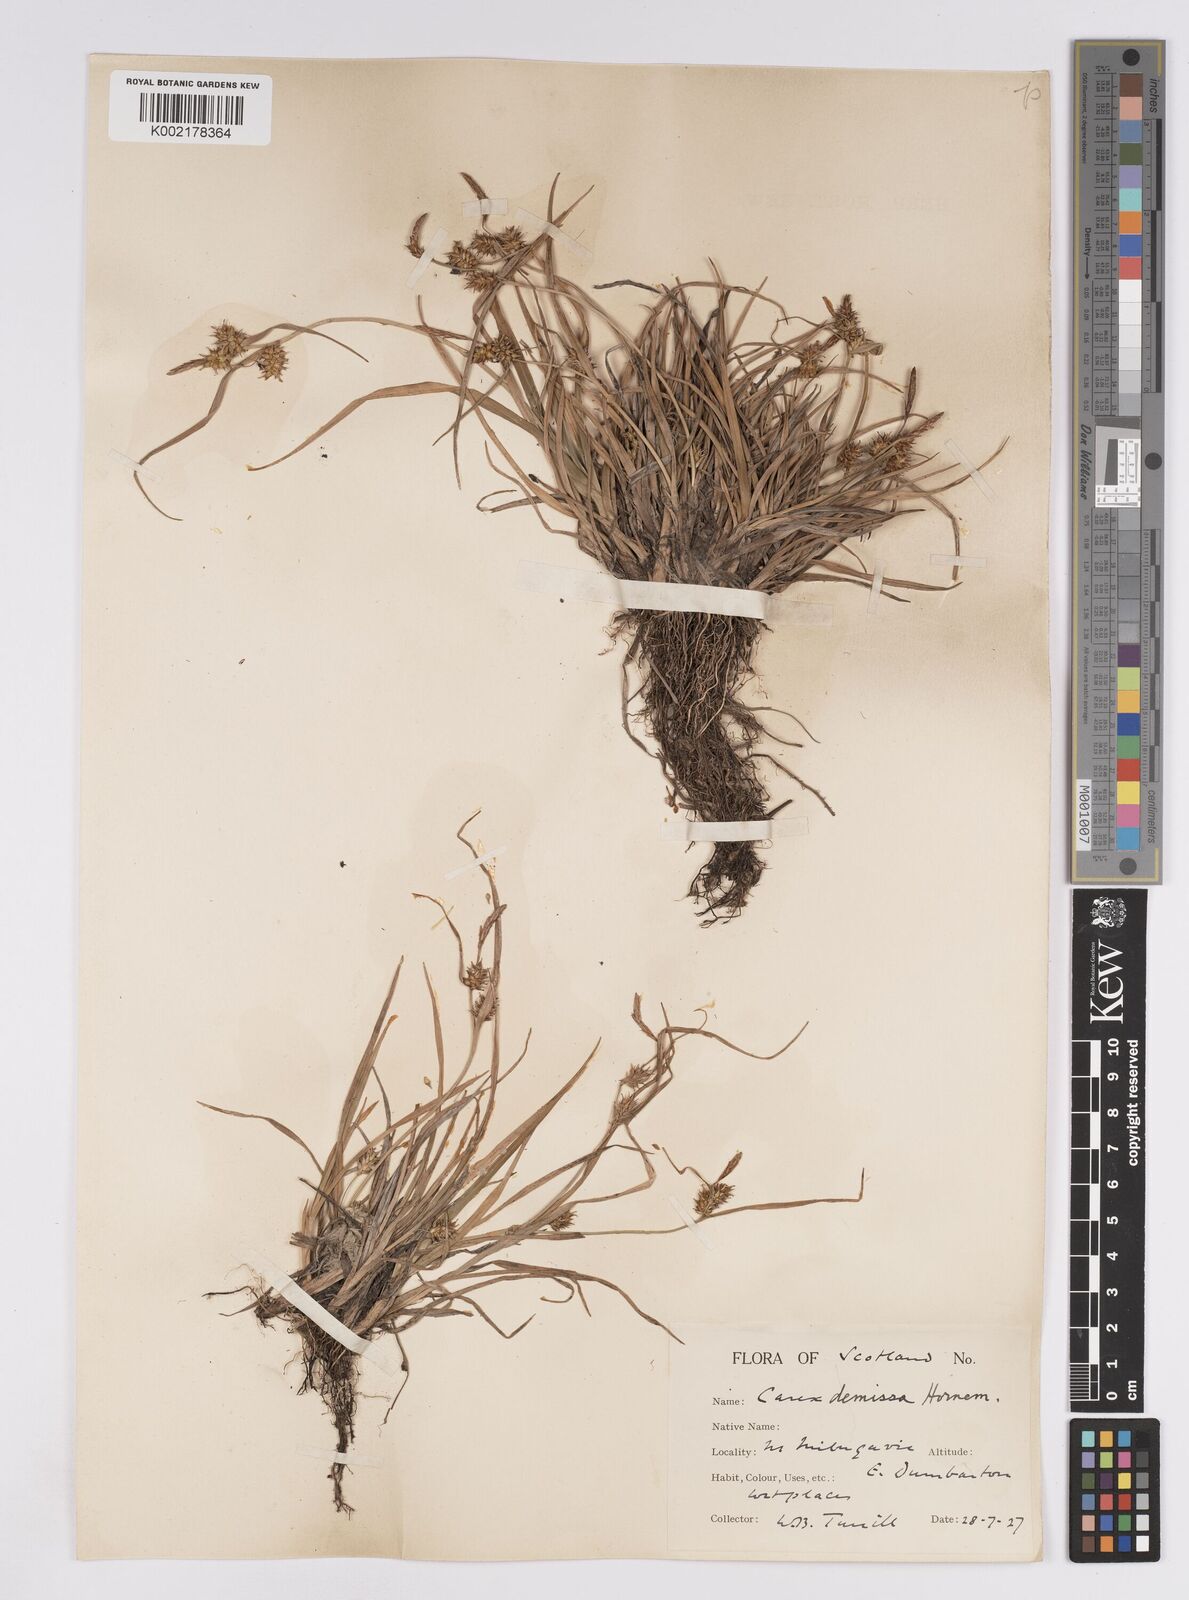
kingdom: Plantae
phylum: Tracheophyta
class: Liliopsida
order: Poales
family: Cyperaceae
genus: Carex
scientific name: Carex demissa
